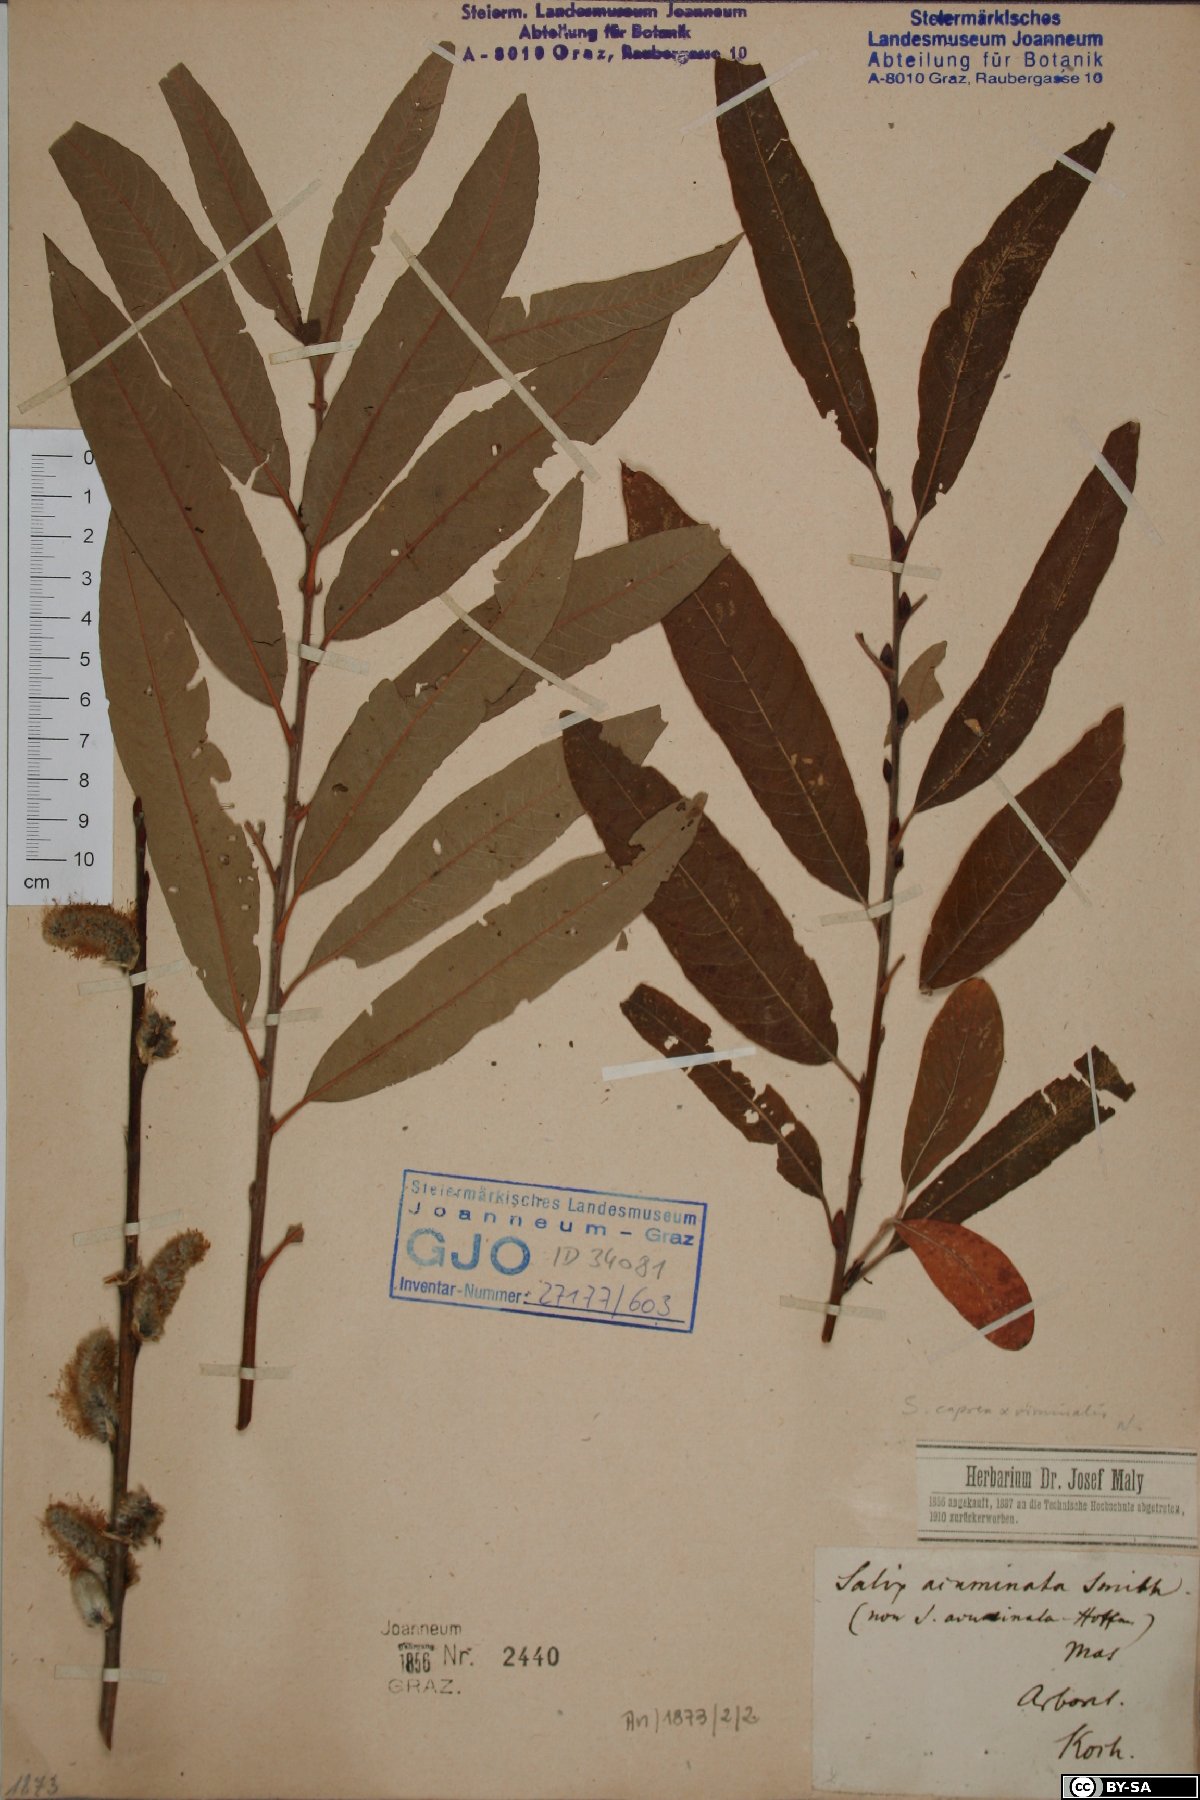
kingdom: Plantae
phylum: Tracheophyta
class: Magnoliopsida
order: Malpighiales
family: Salicaceae
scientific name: Salicaceae
